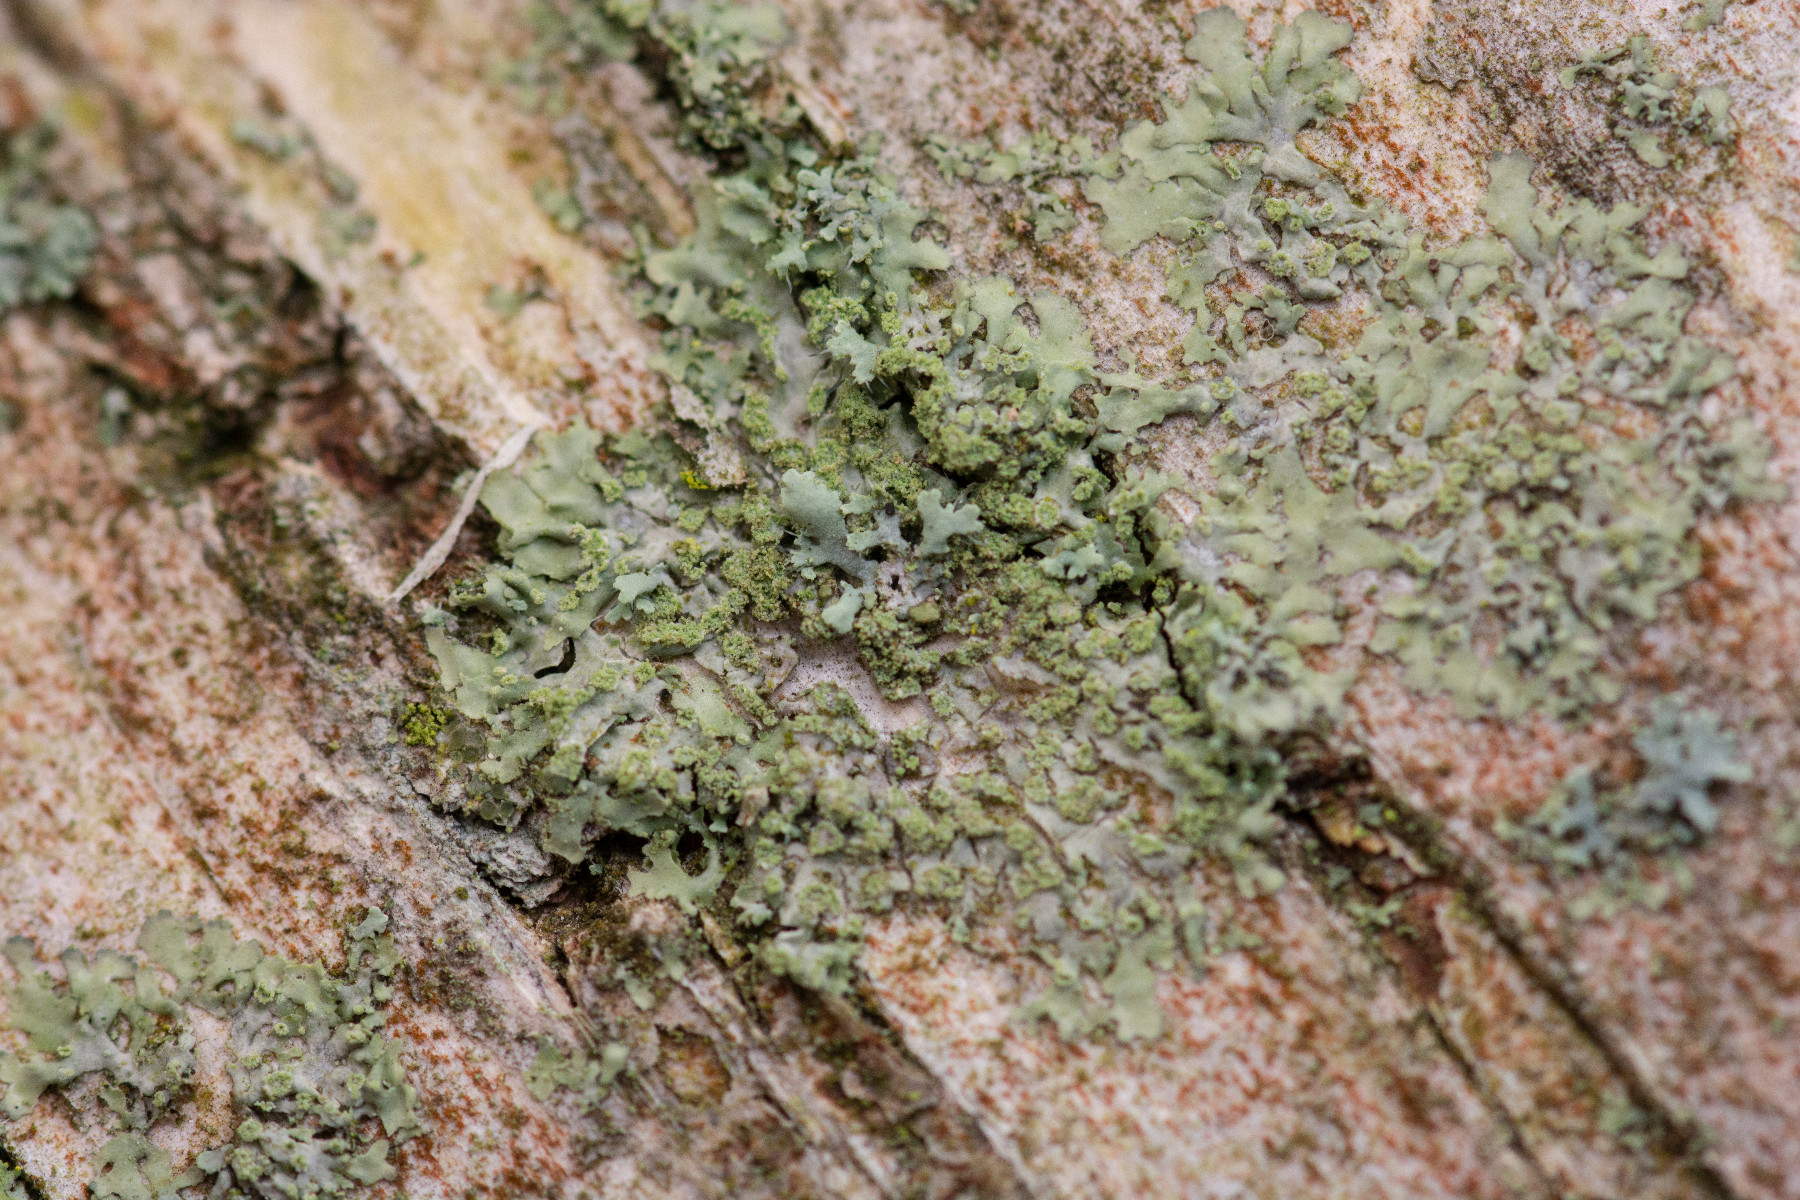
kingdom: Fungi
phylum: Ascomycota
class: Lecanoromycetes
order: Caliciales
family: Physciaceae
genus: Hyperphyscia
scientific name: Hyperphyscia adglutinata
